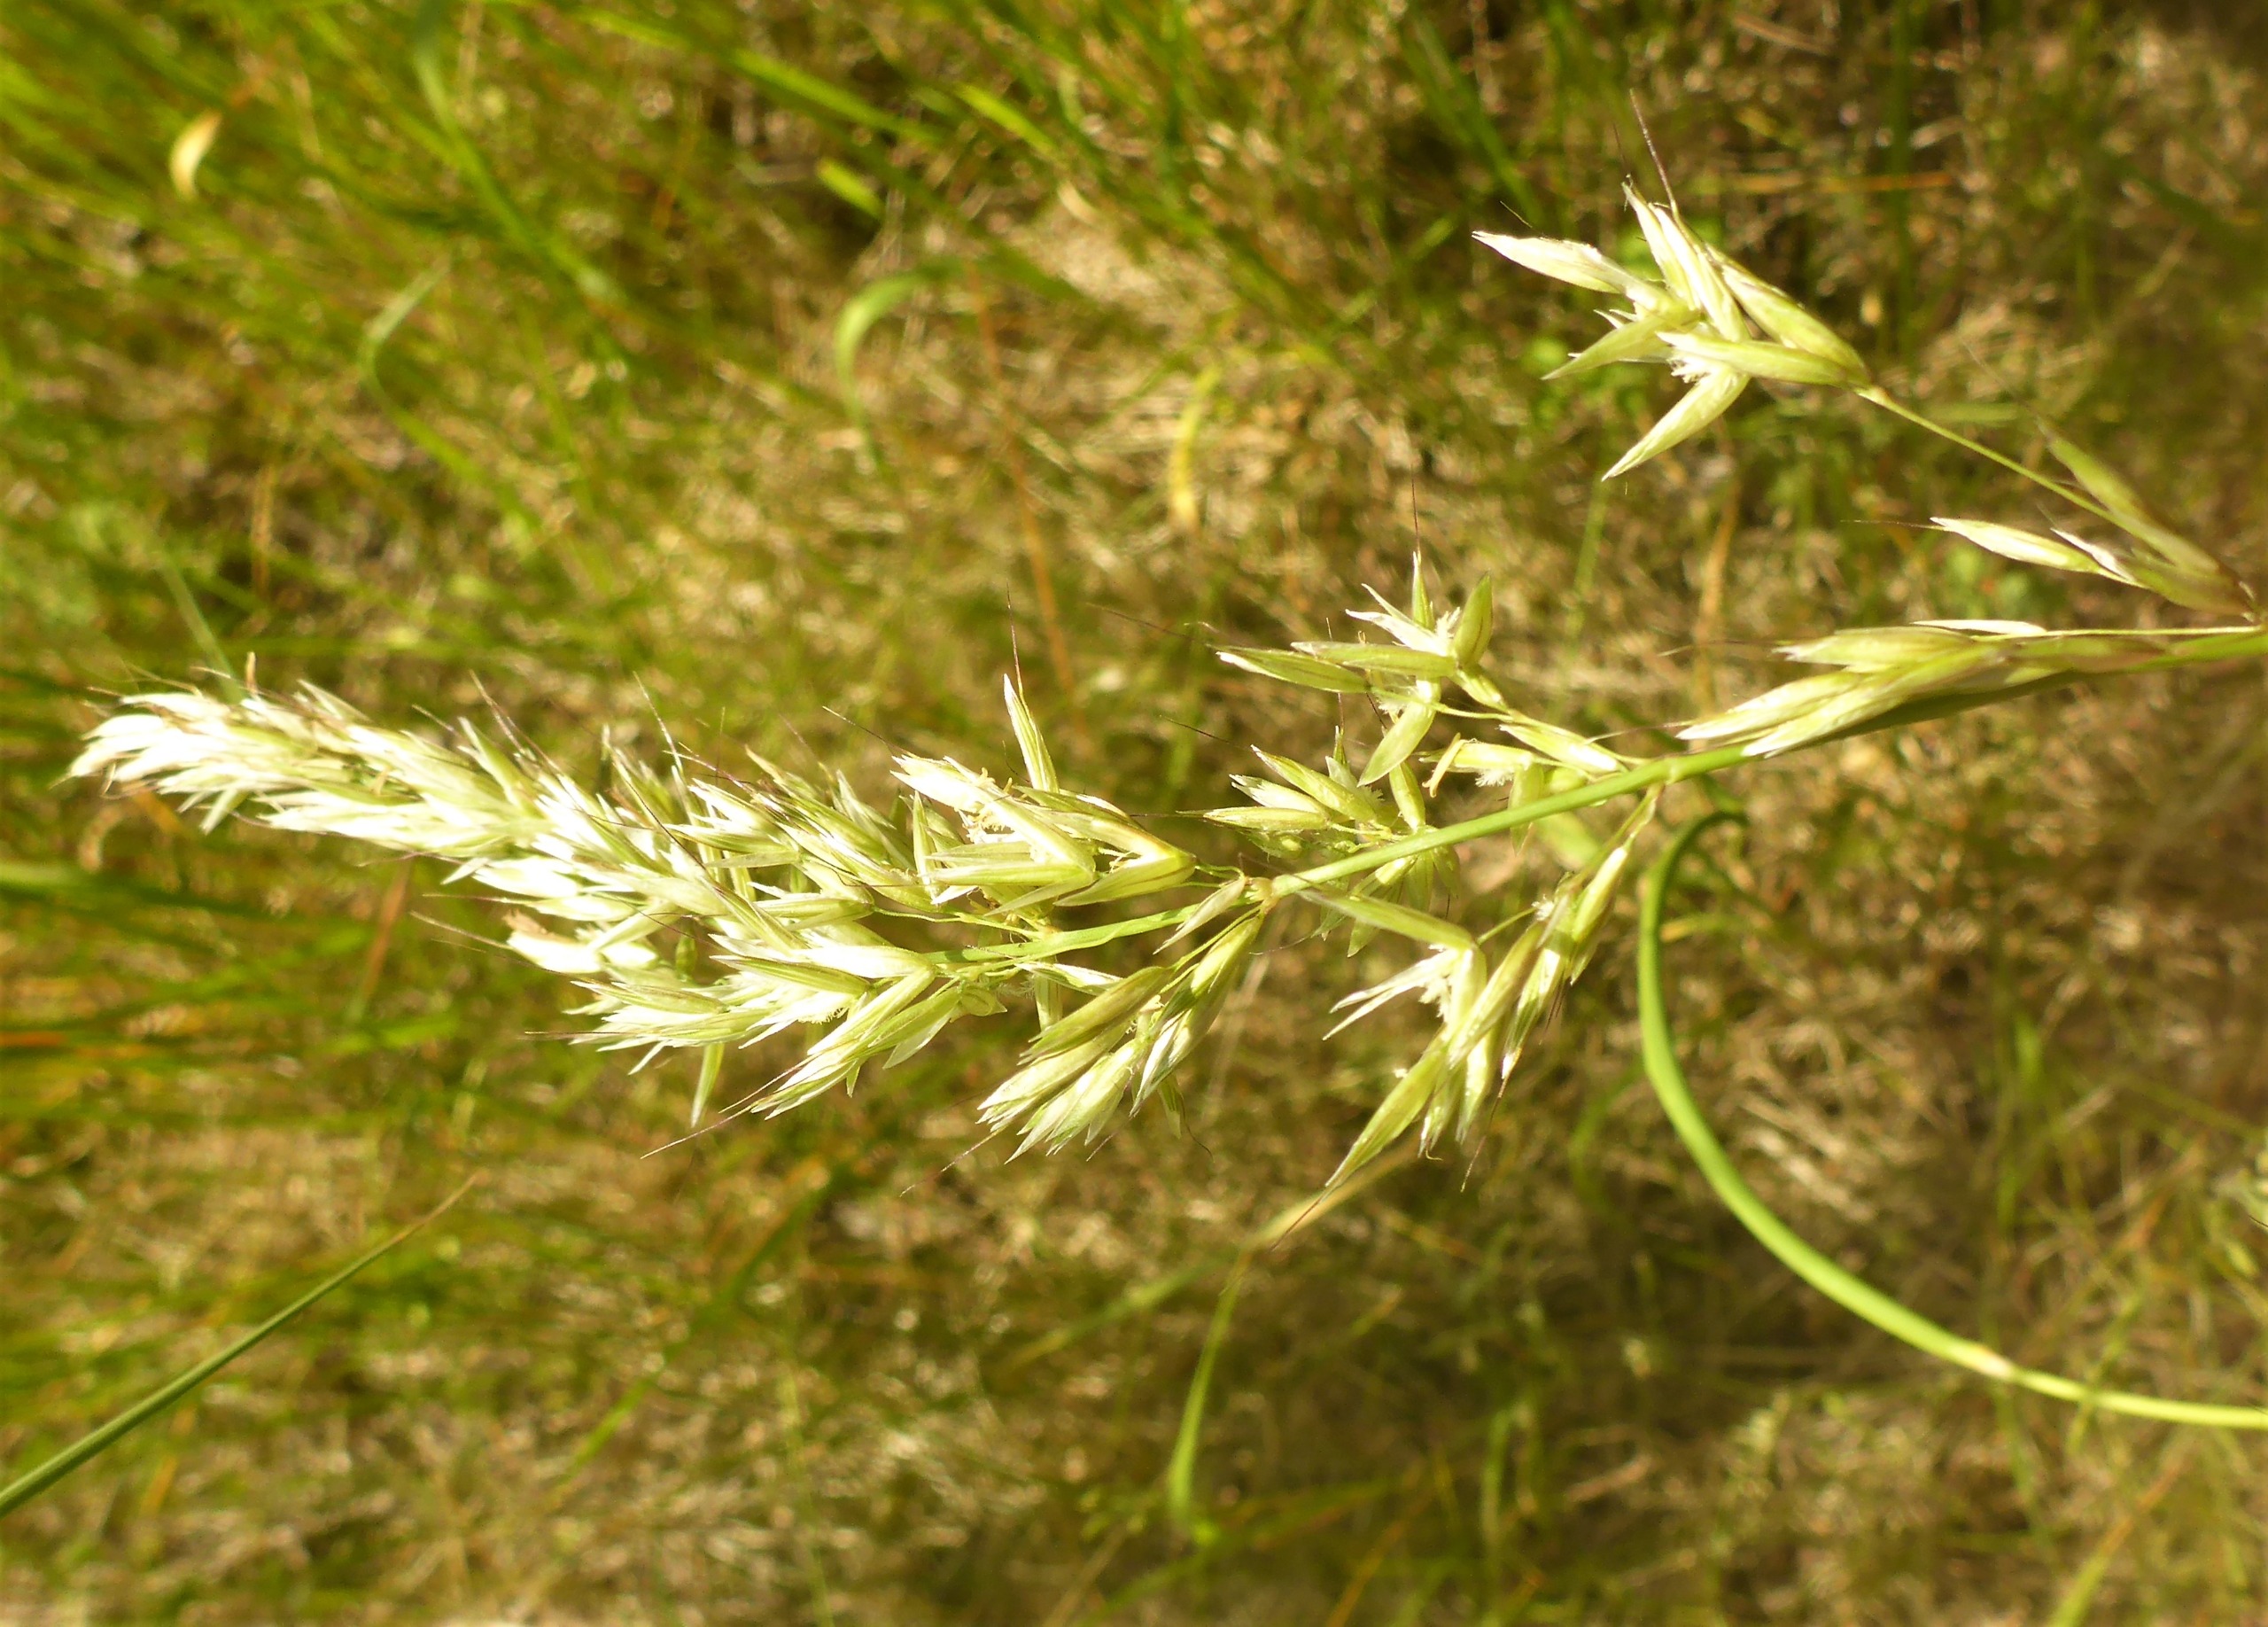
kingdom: Plantae
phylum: Tracheophyta
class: Liliopsida
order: Poales
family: Poaceae
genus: Arrhenatherum
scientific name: Arrhenatherum elatius
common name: Draphavre
